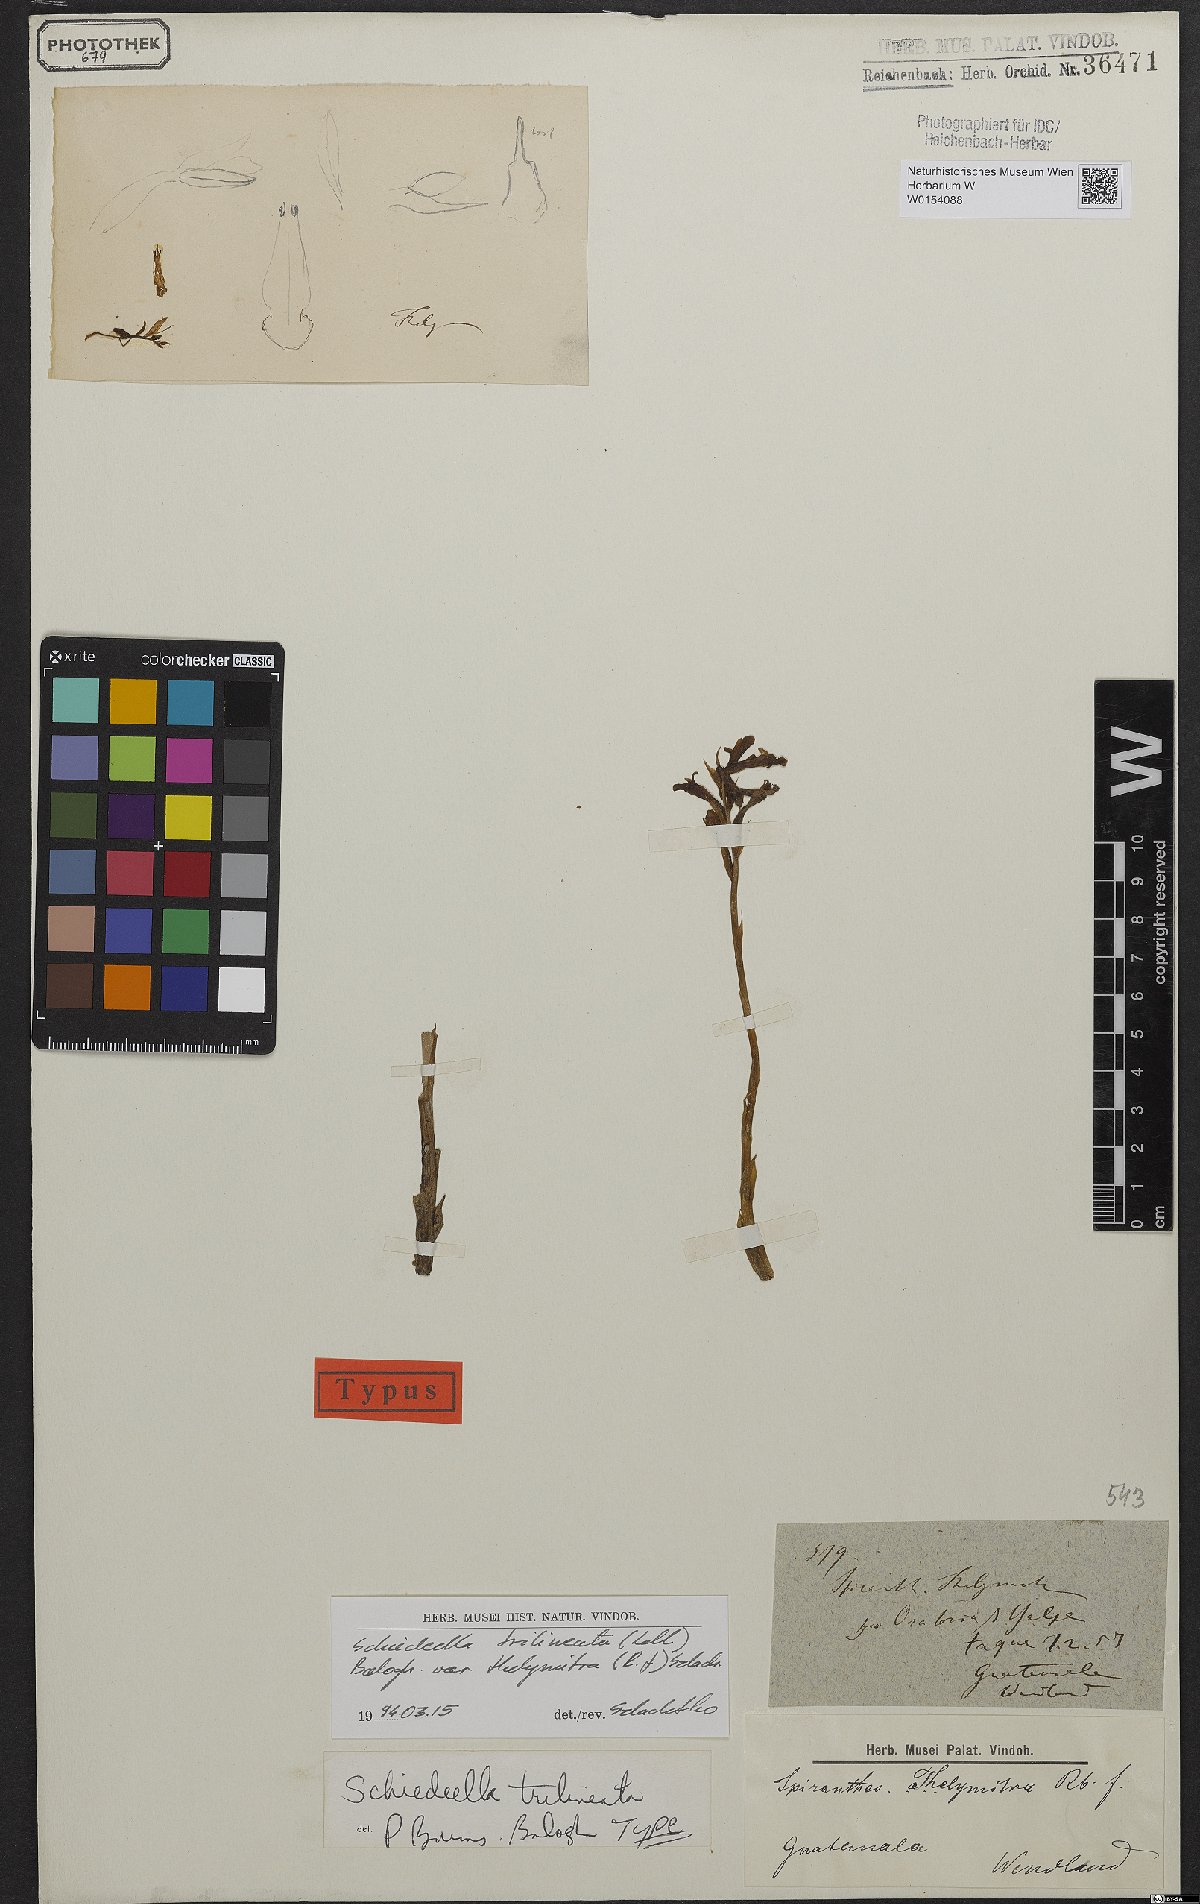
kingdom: Plantae
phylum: Tracheophyta
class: Liliopsida
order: Asparagales
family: Orchidaceae
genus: Deiregyne
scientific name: Deiregyne thelyrnitra
